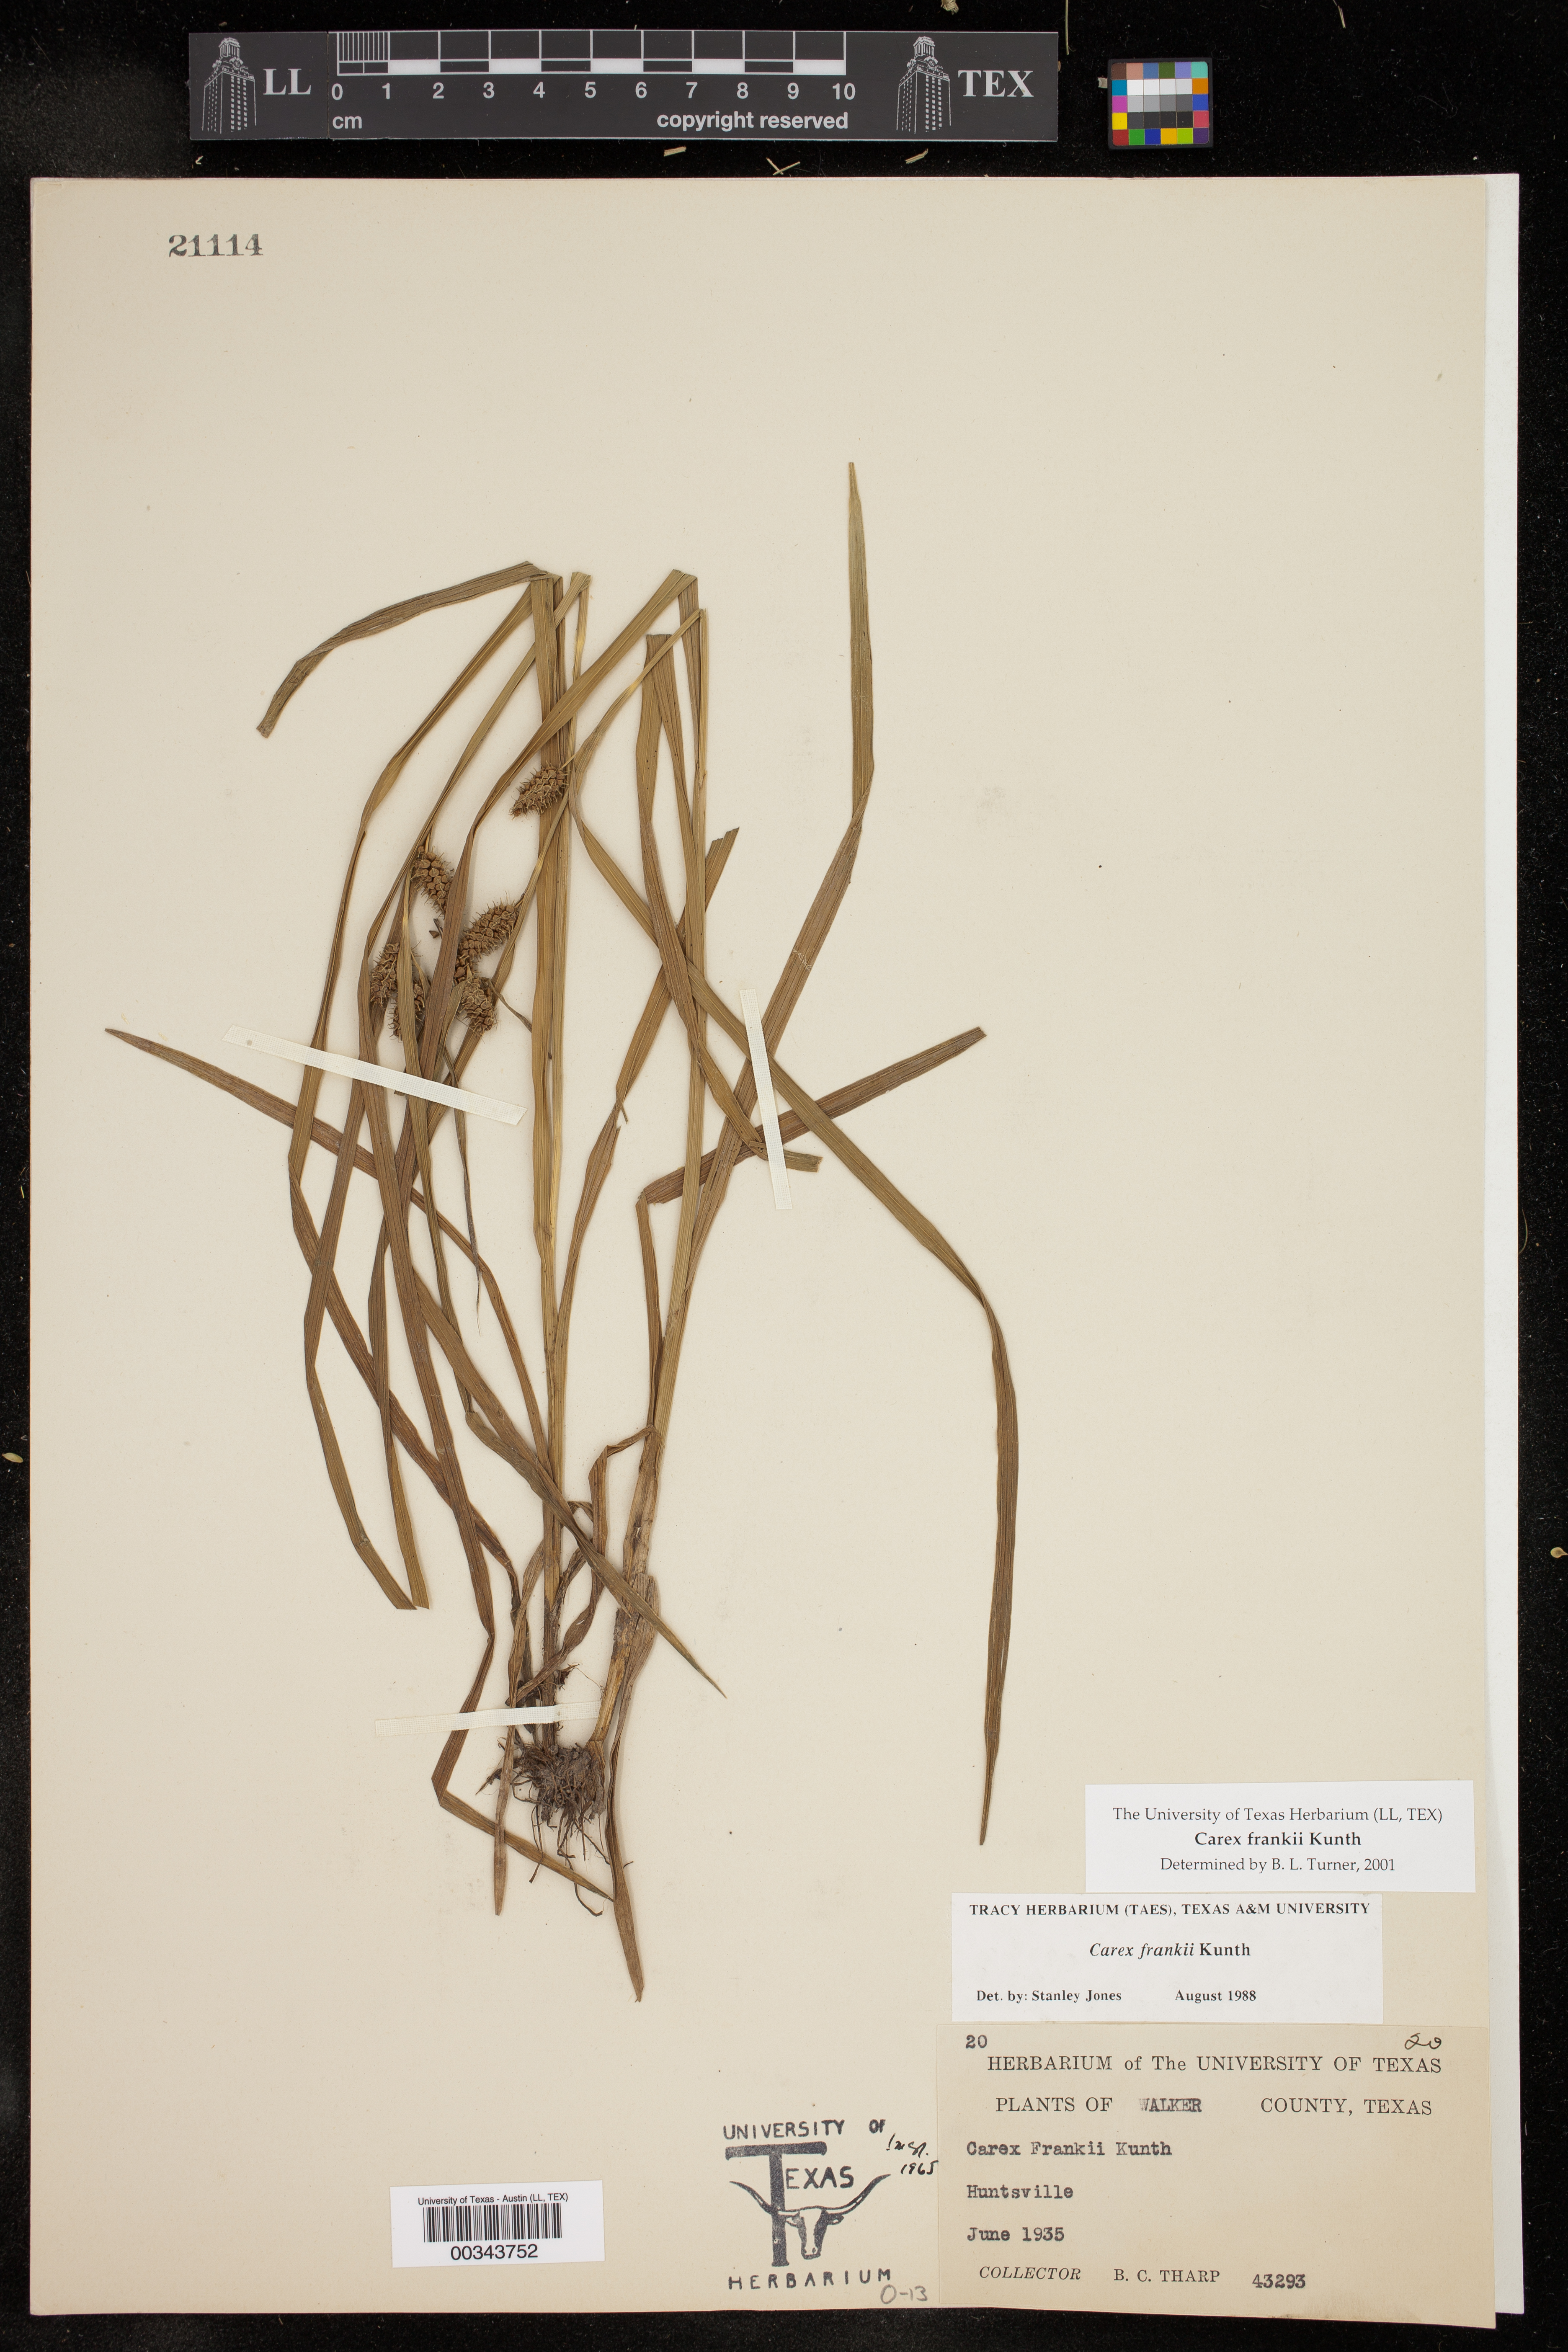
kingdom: Plantae
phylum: Tracheophyta
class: Liliopsida
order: Poales
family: Cyperaceae
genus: Carex
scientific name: Carex frankii
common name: Frank's sedge
